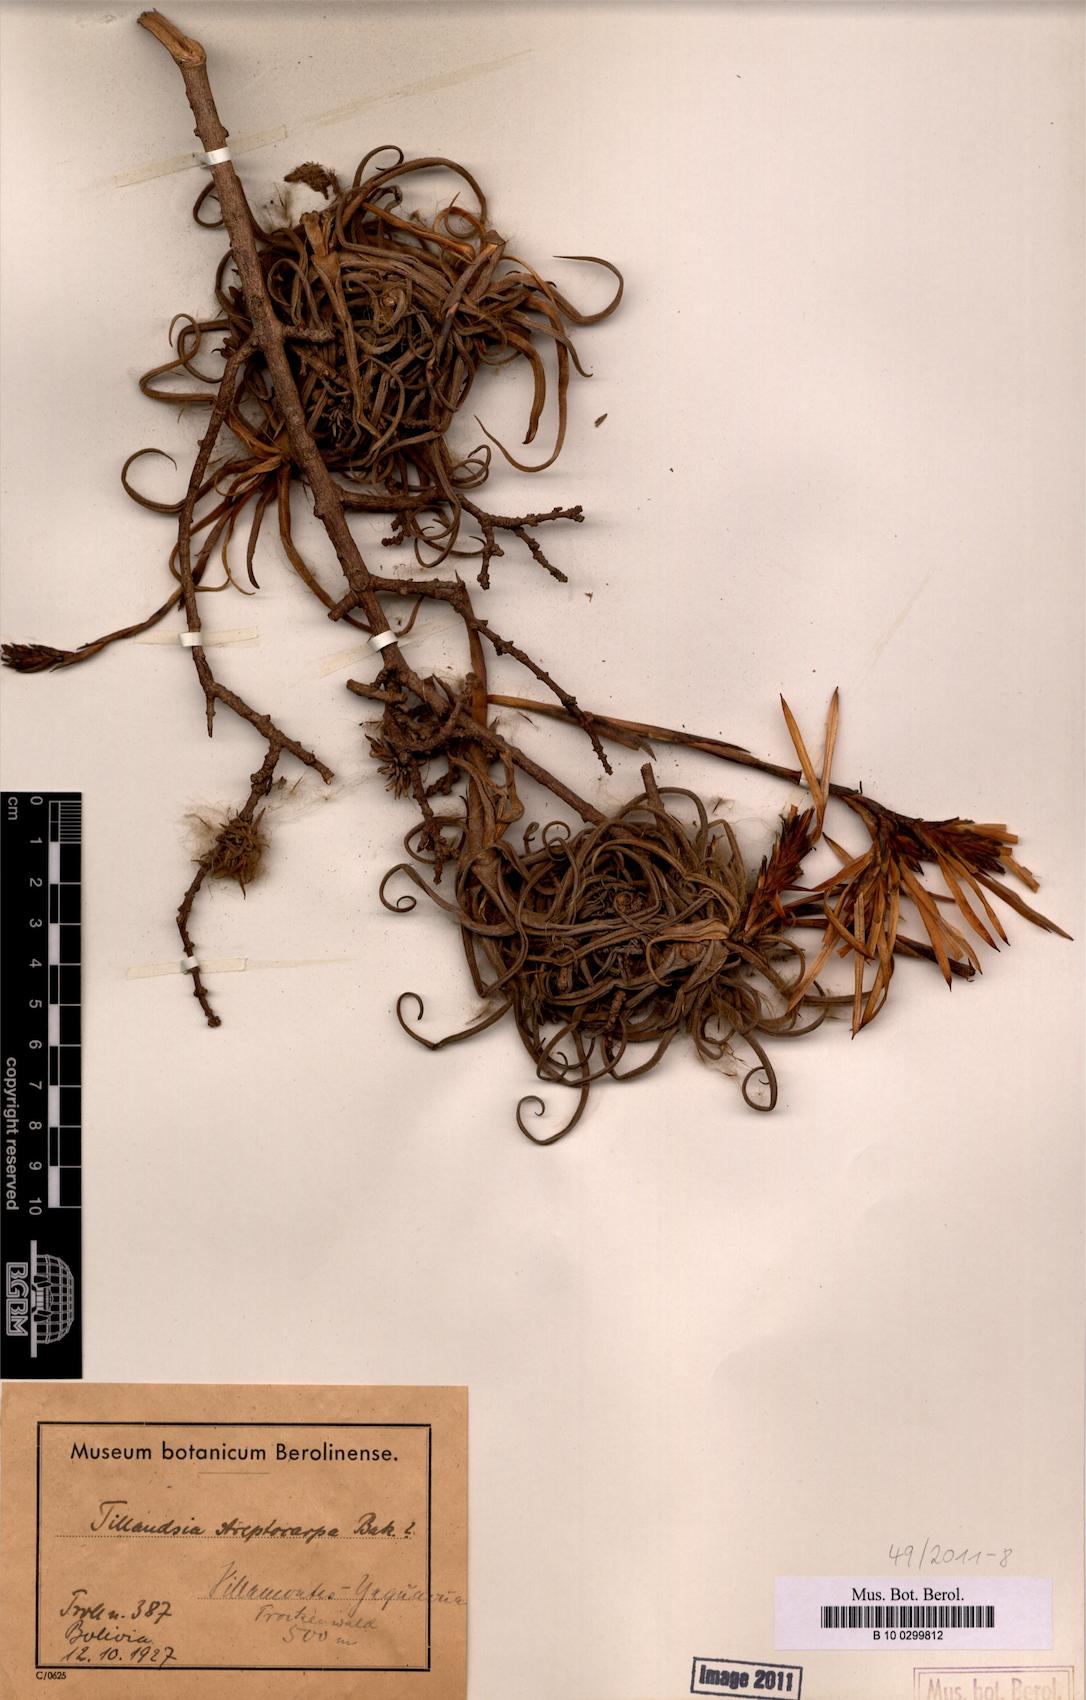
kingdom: Plantae
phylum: Tracheophyta
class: Liliopsida
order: Poales
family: Bromeliaceae
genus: Tillandsia
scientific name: Tillandsia streptocarpa
